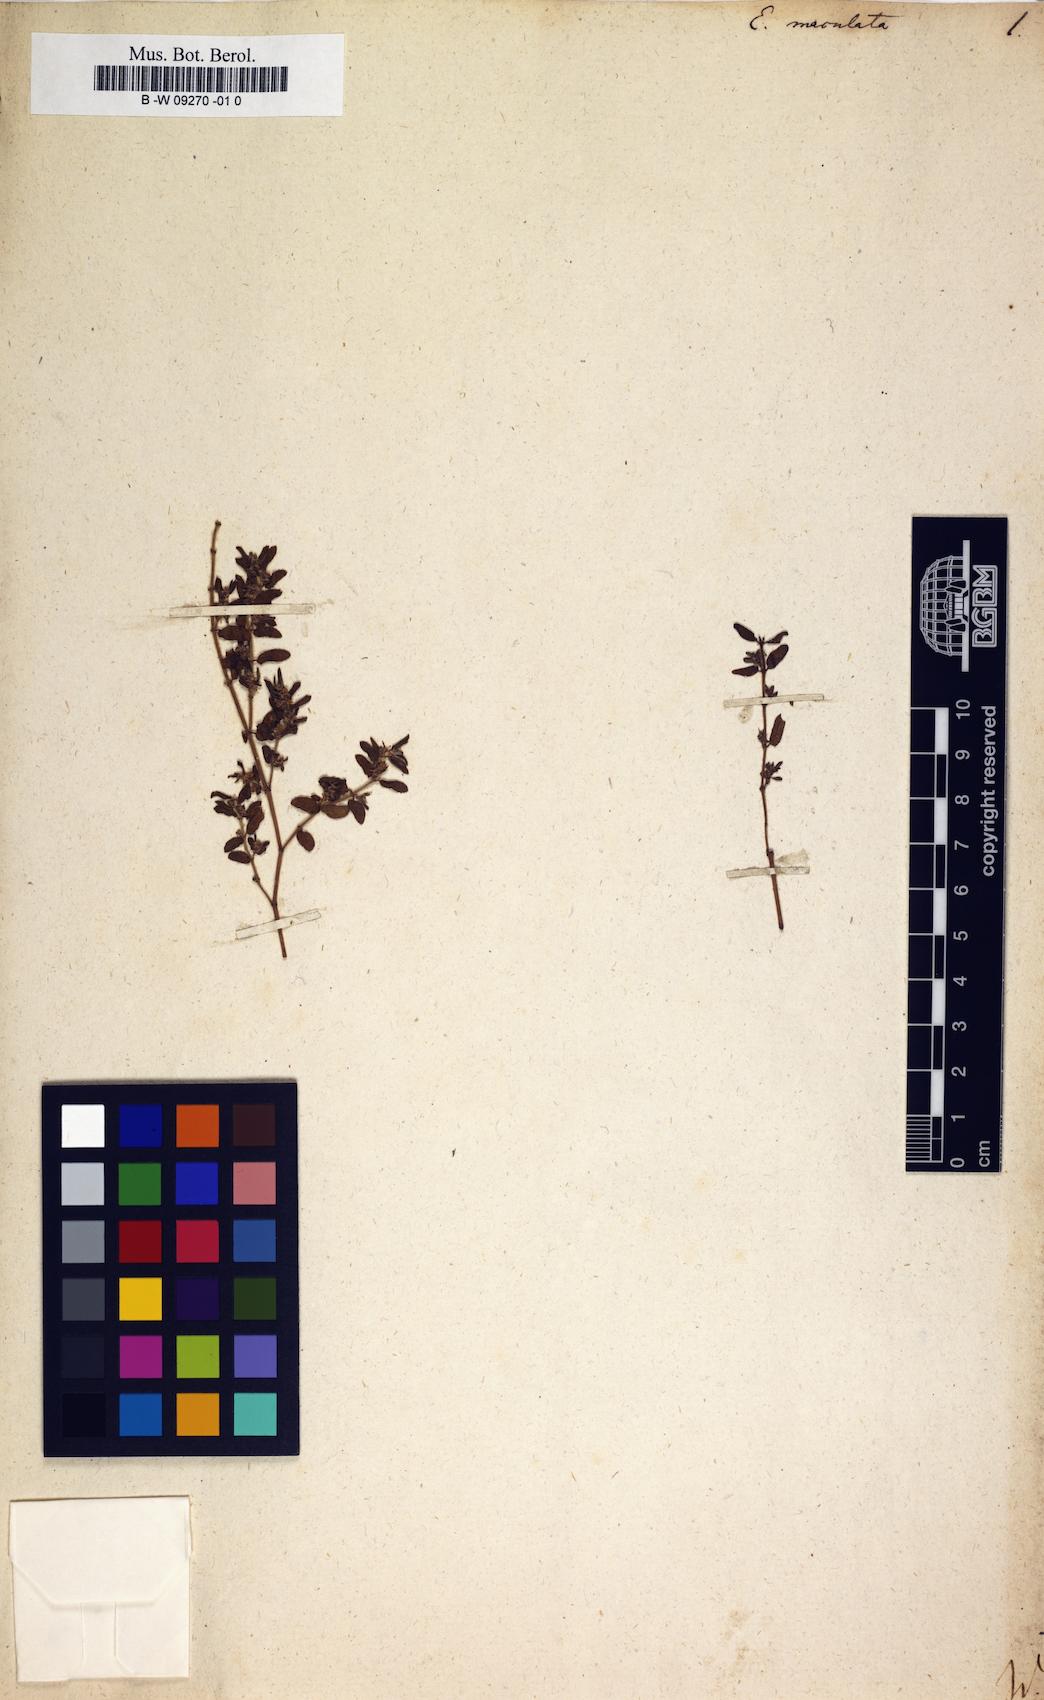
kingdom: Plantae
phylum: Tracheophyta
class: Magnoliopsida
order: Malpighiales
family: Euphorbiaceae
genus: Euphorbia
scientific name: Euphorbia maculata
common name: Spotted spurge
